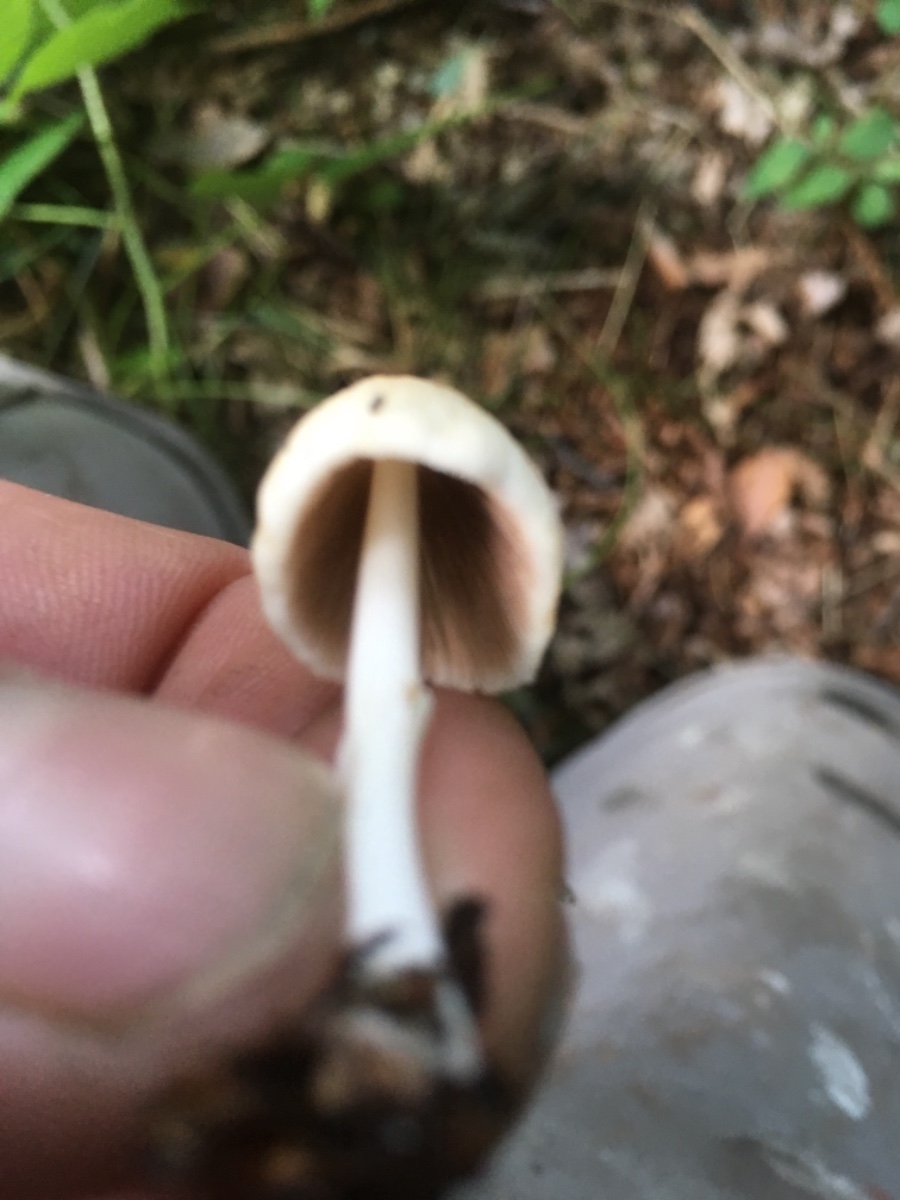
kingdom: Fungi
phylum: Basidiomycota
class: Agaricomycetes
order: Agaricales
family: Psathyrellaceae
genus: Coprinellus
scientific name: Coprinellus
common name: blækhat
